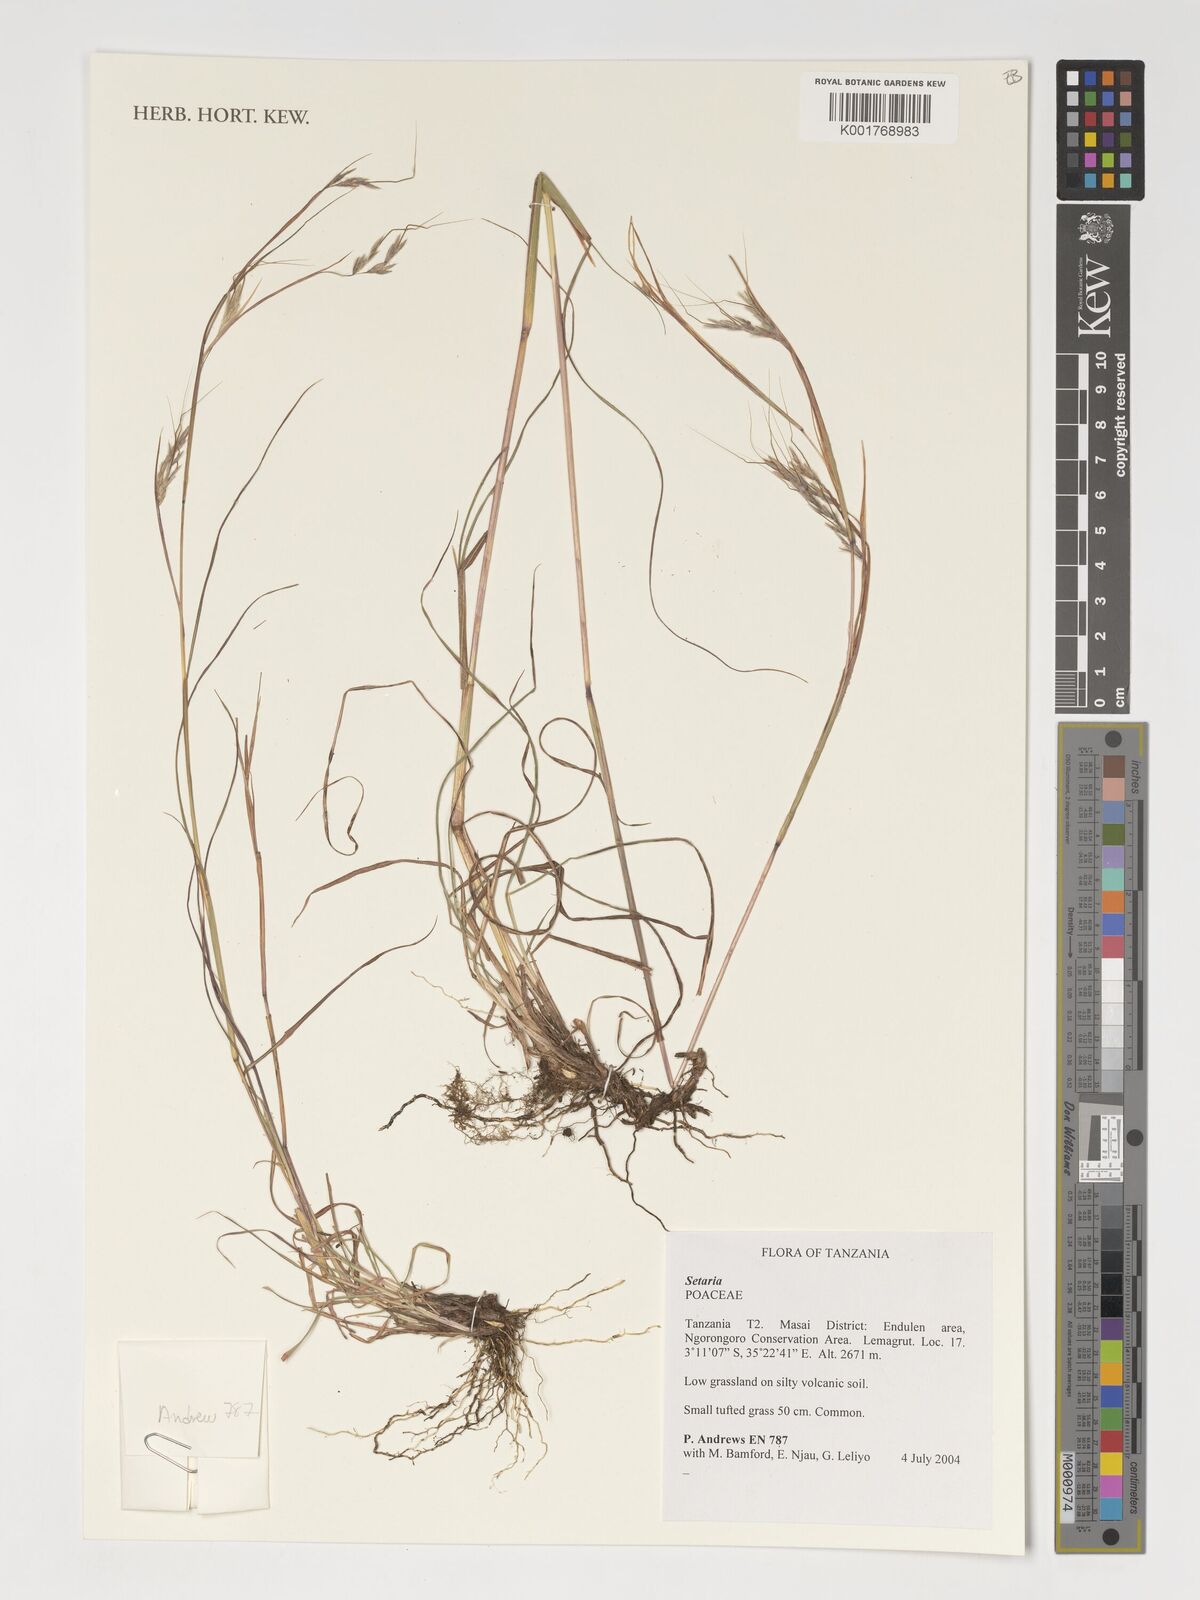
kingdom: Plantae
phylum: Tracheophyta
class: Liliopsida
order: Poales
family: Poaceae
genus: Setaria
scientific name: Setaria
